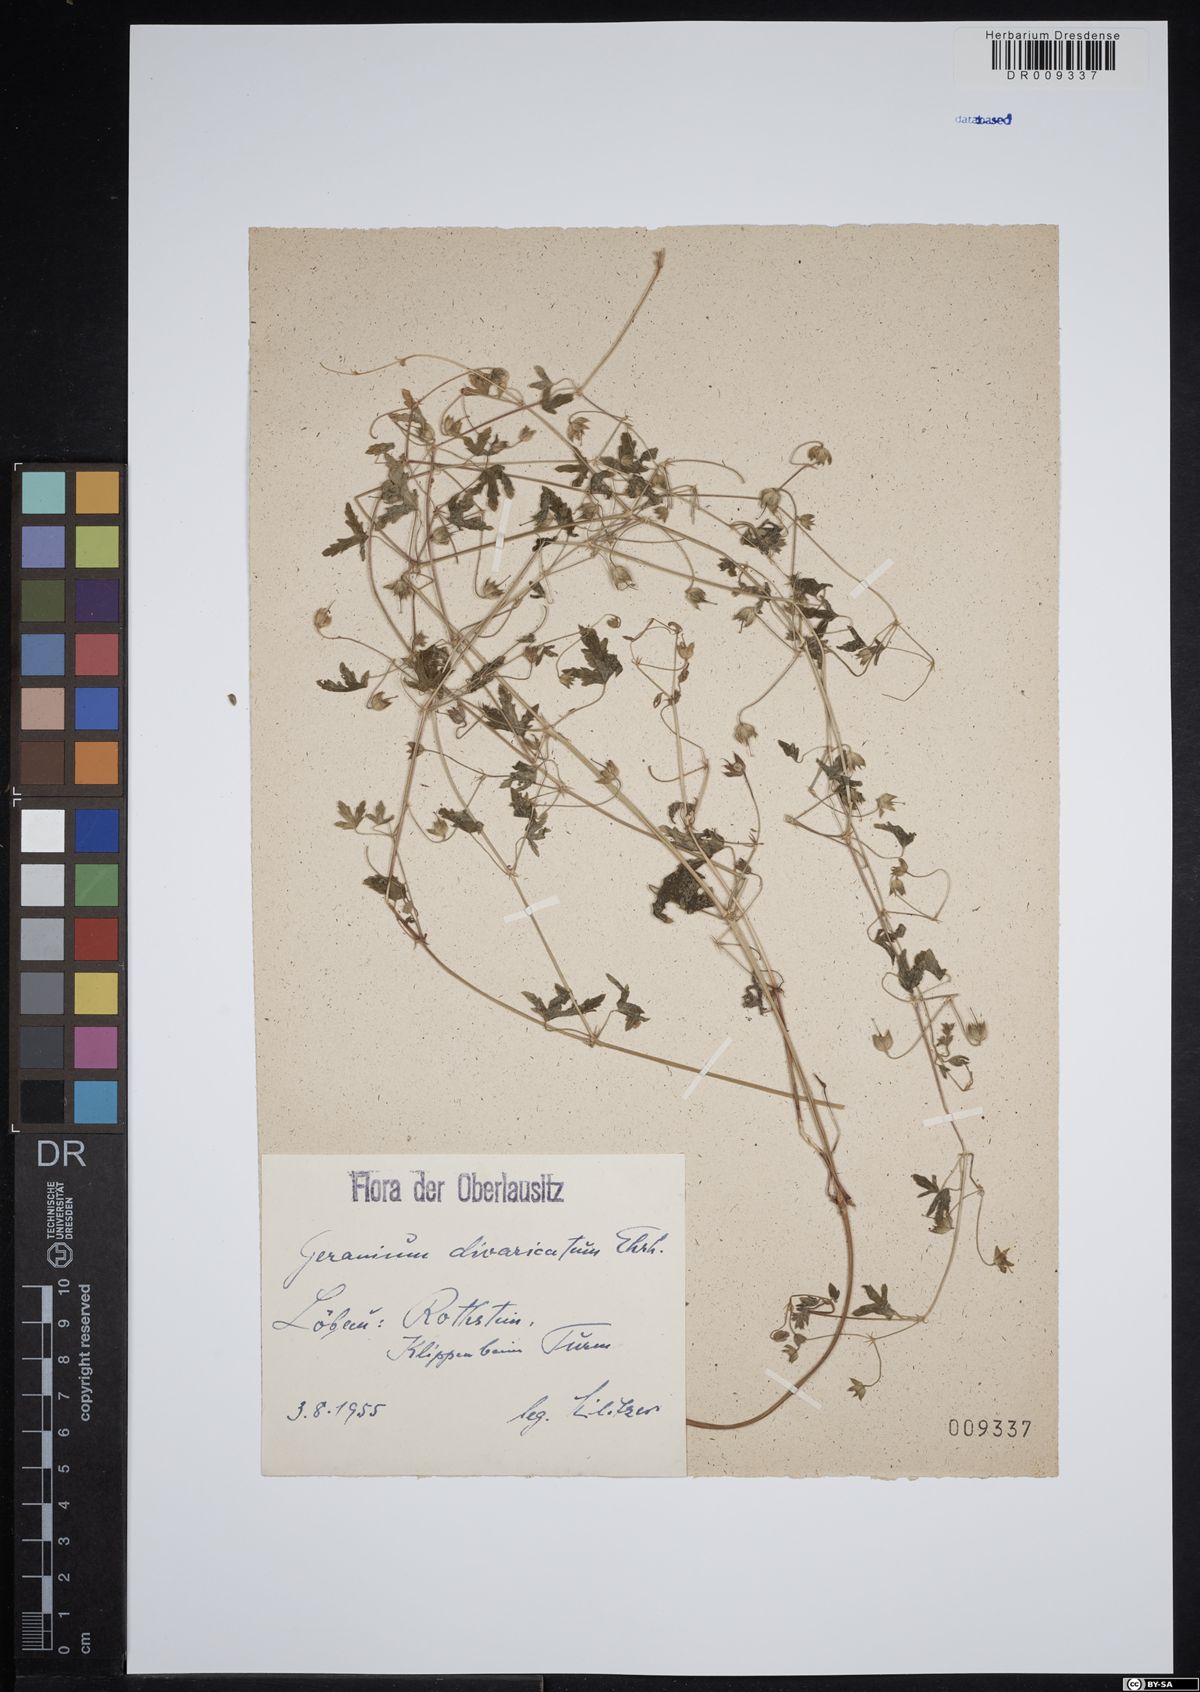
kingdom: Plantae
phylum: Tracheophyta
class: Magnoliopsida
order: Geraniales
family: Geraniaceae
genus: Geranium
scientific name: Geranium divaricatum
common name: Spreading crane's-bill
